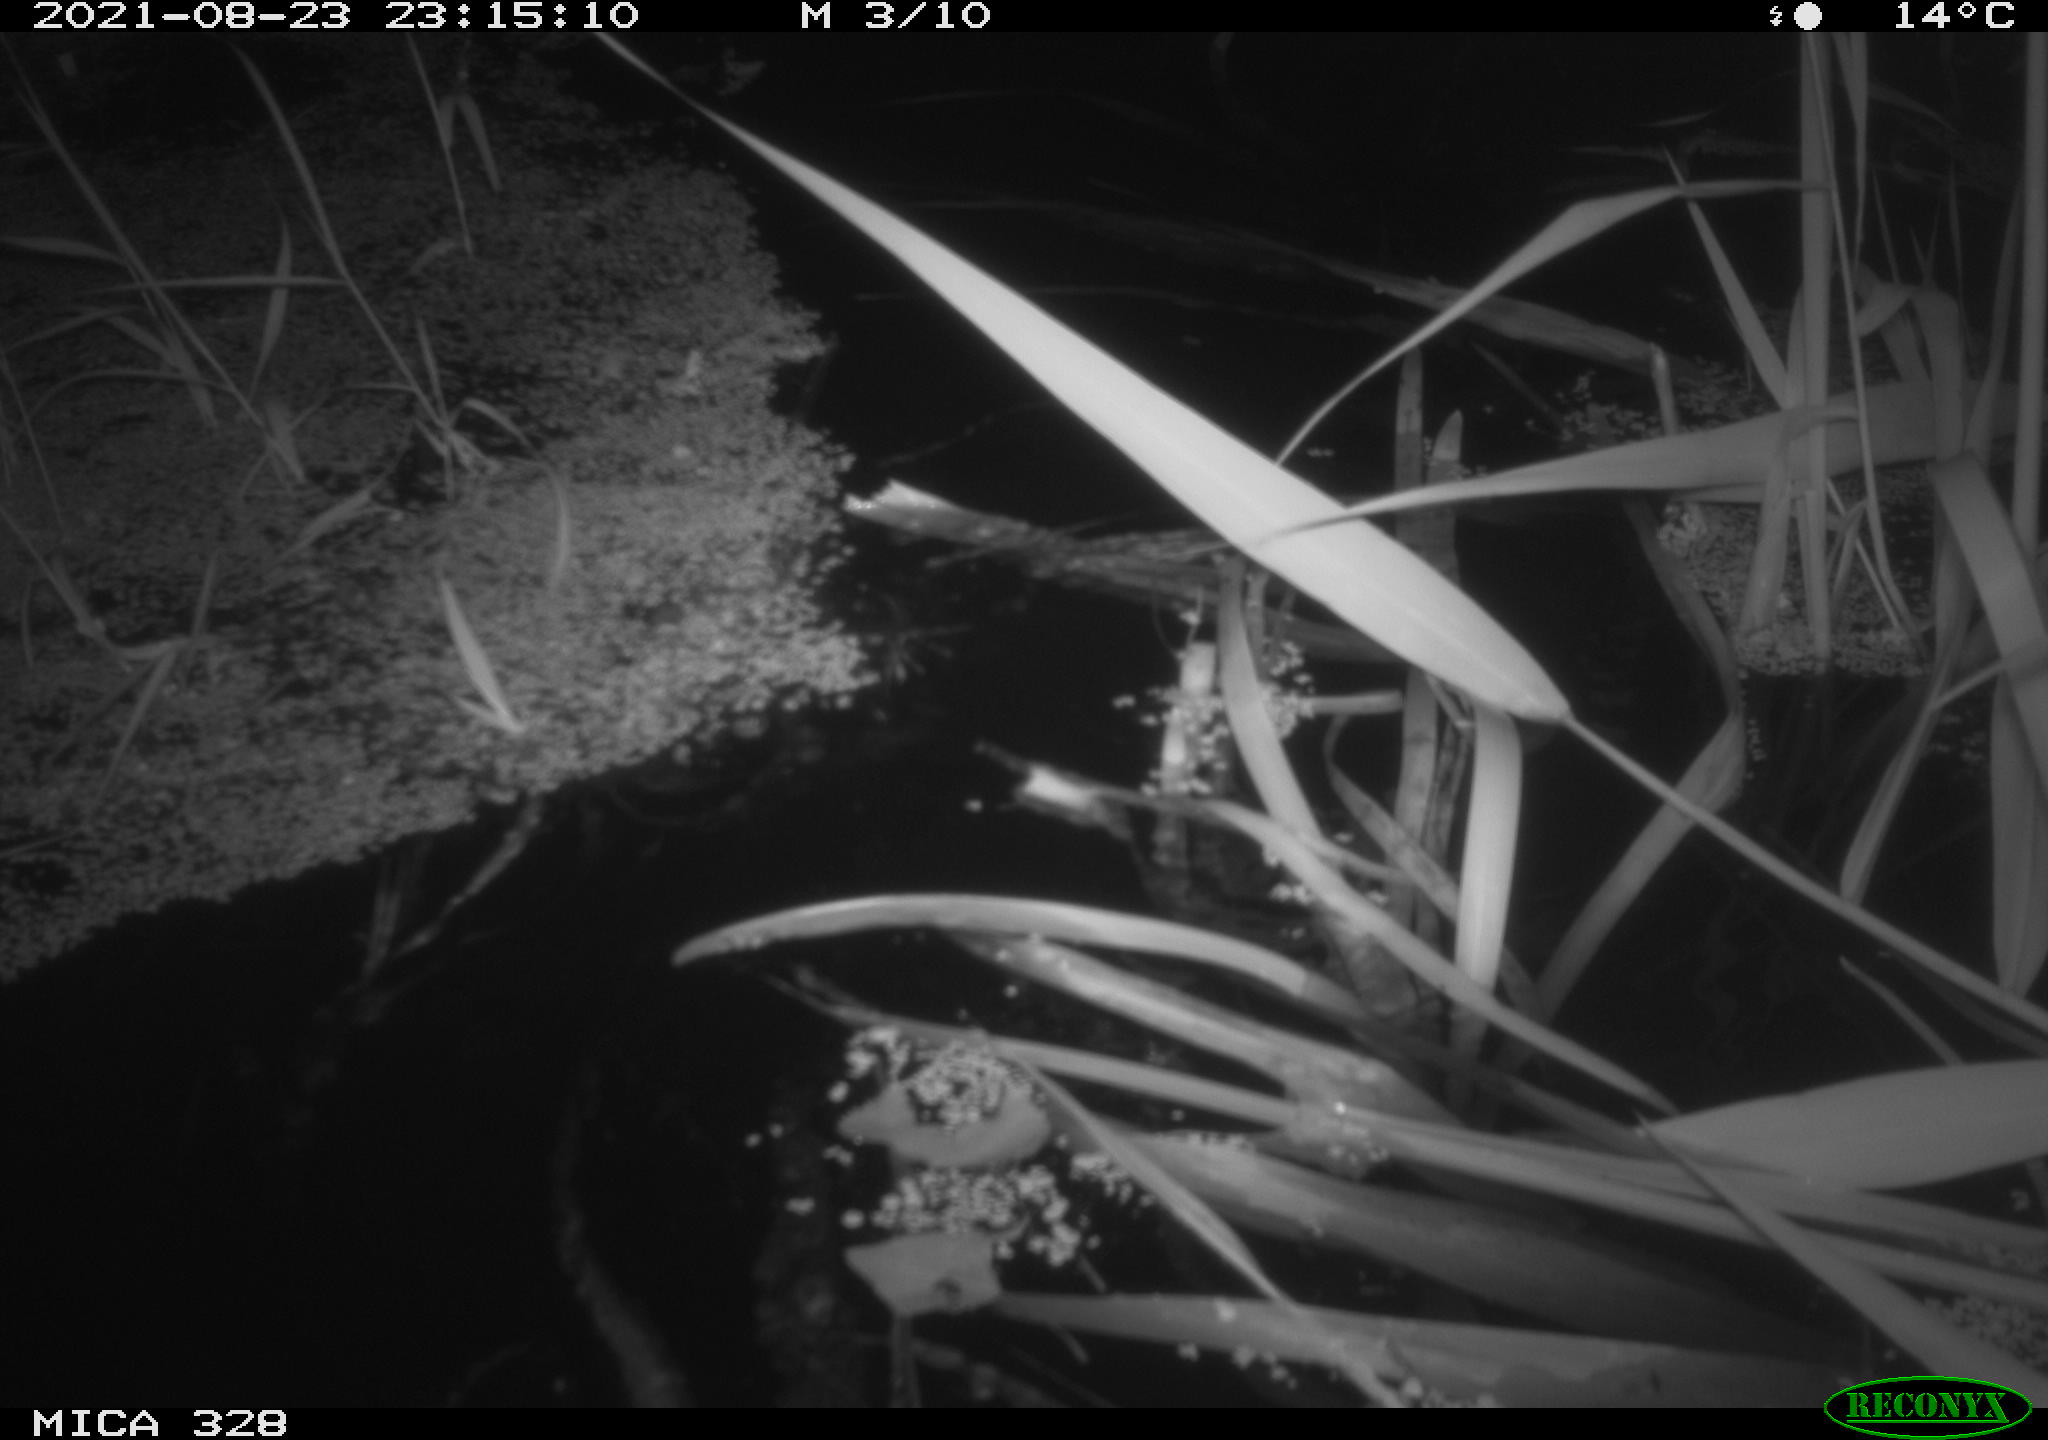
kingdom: Animalia
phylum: Chordata
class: Mammalia
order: Rodentia
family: Cricetidae
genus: Ondatra
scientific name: Ondatra zibethicus
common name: Muskrat
